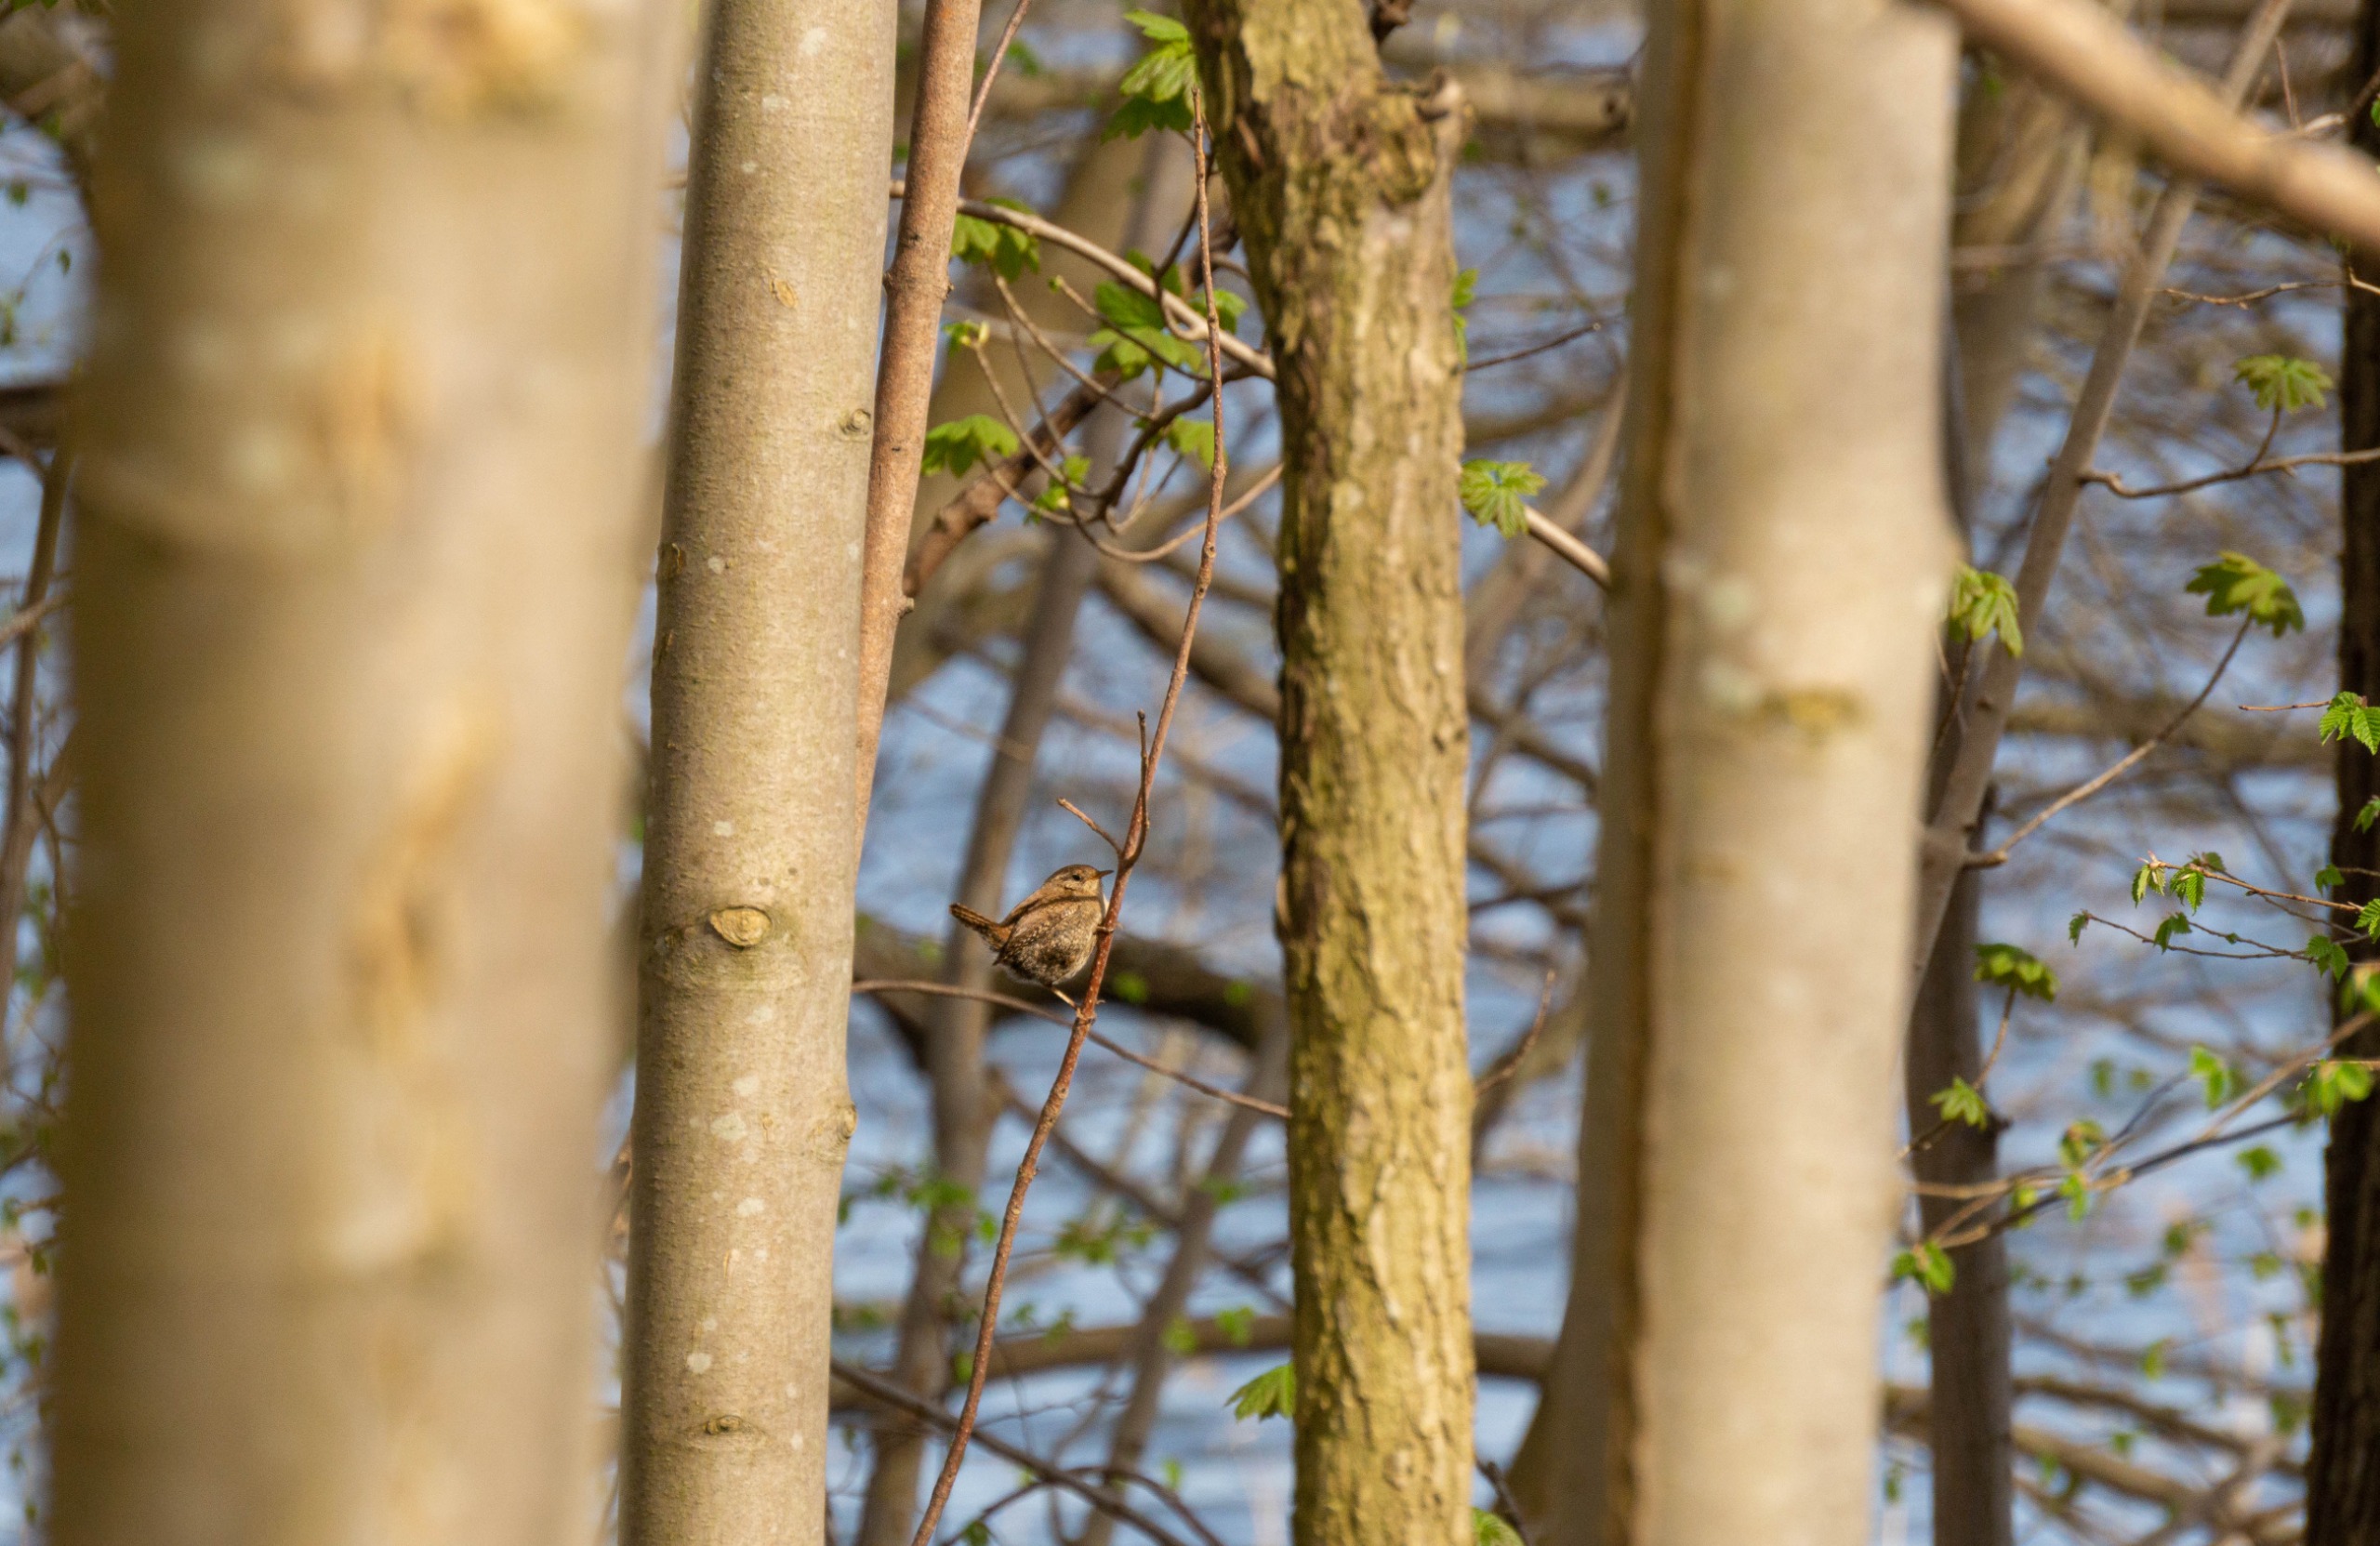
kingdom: Animalia
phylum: Chordata
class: Aves
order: Passeriformes
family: Troglodytidae
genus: Troglodytes
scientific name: Troglodytes troglodytes
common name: Gærdesmutte
